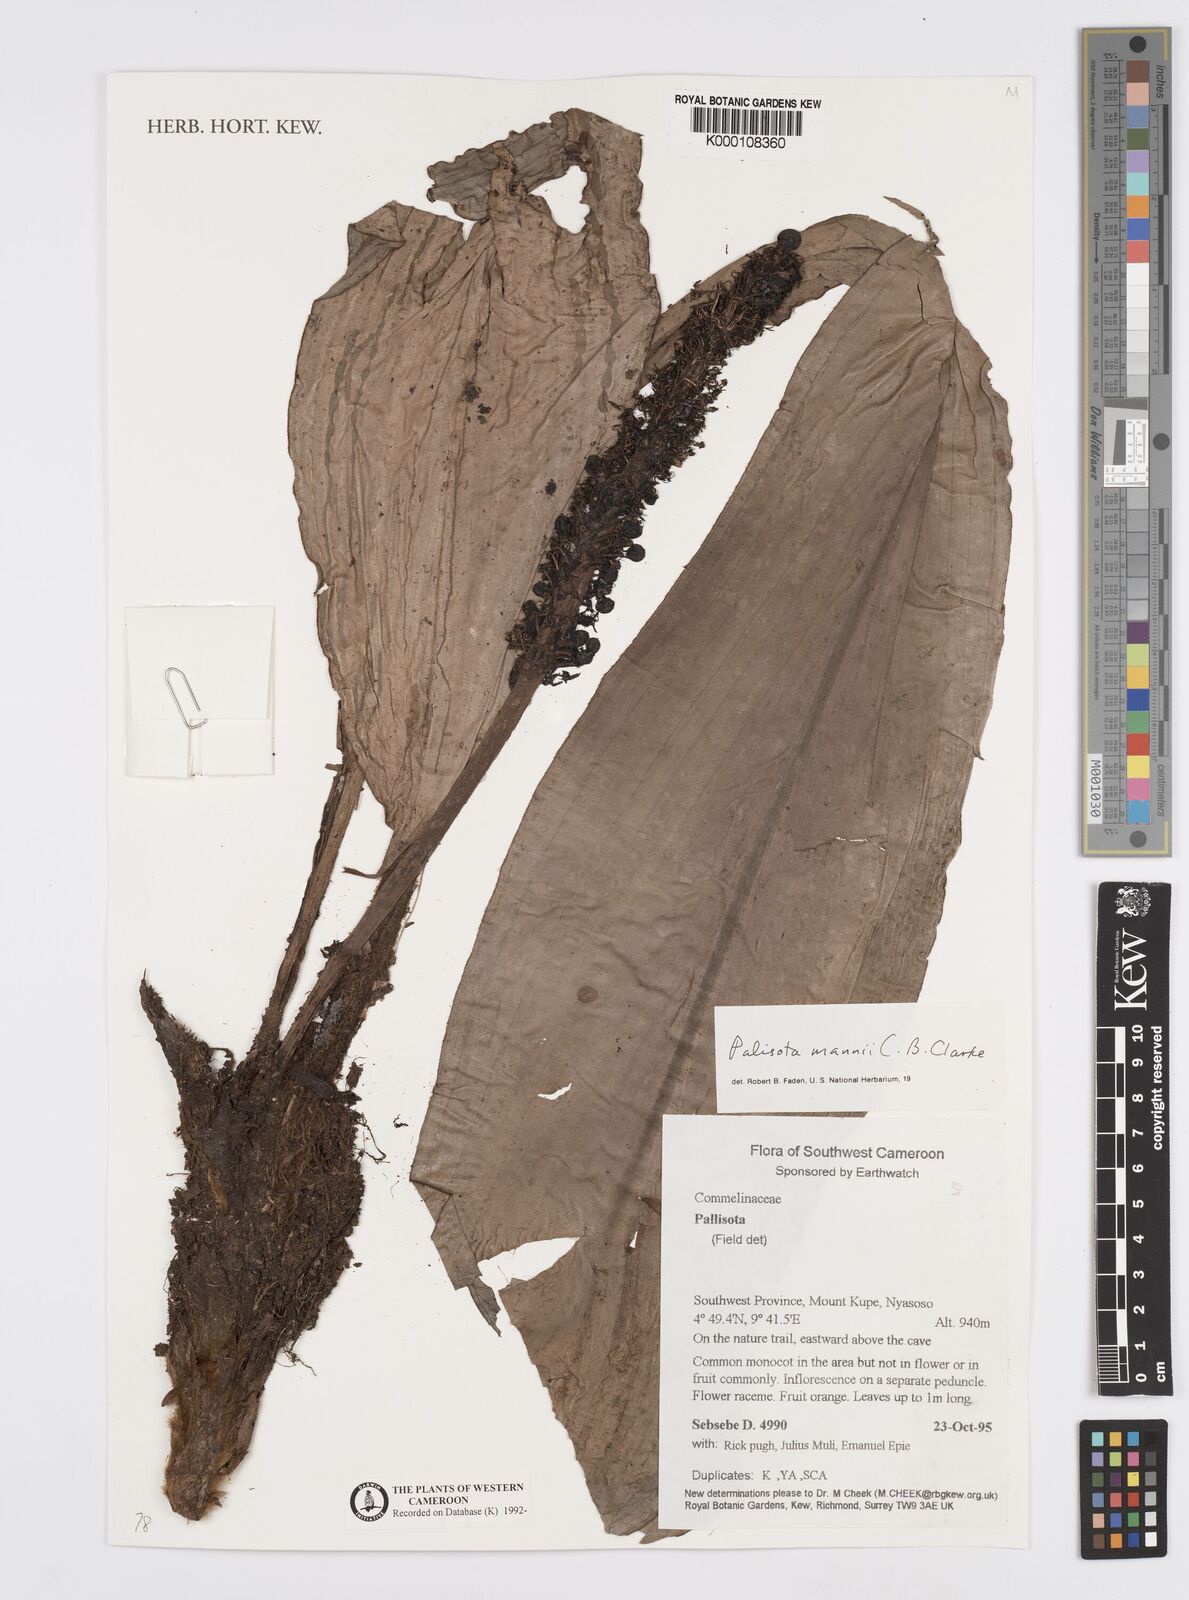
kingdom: Plantae
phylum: Tracheophyta
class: Liliopsida
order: Commelinales
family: Commelinaceae
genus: Palisota
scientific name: Palisota mannii
